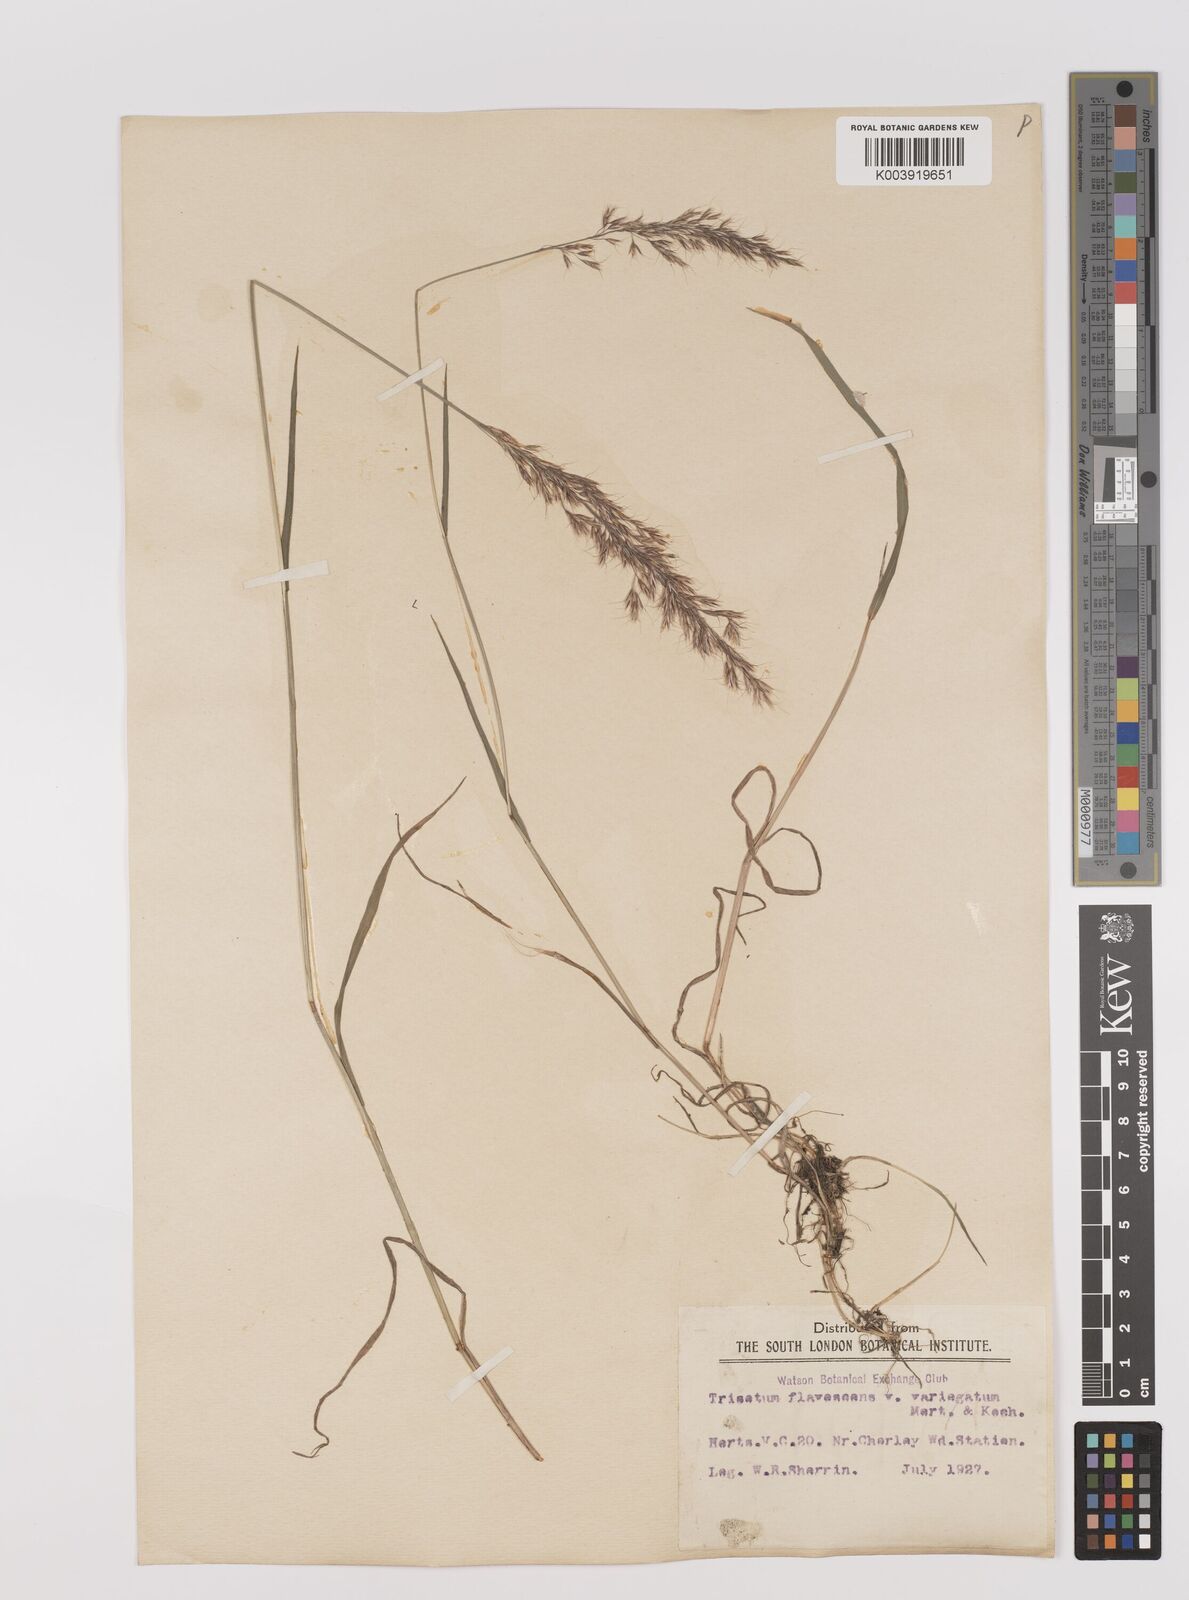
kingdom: Plantae
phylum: Tracheophyta
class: Liliopsida
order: Poales
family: Poaceae
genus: Trisetum
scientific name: Trisetum flavescens
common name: Yellow oat-grass
